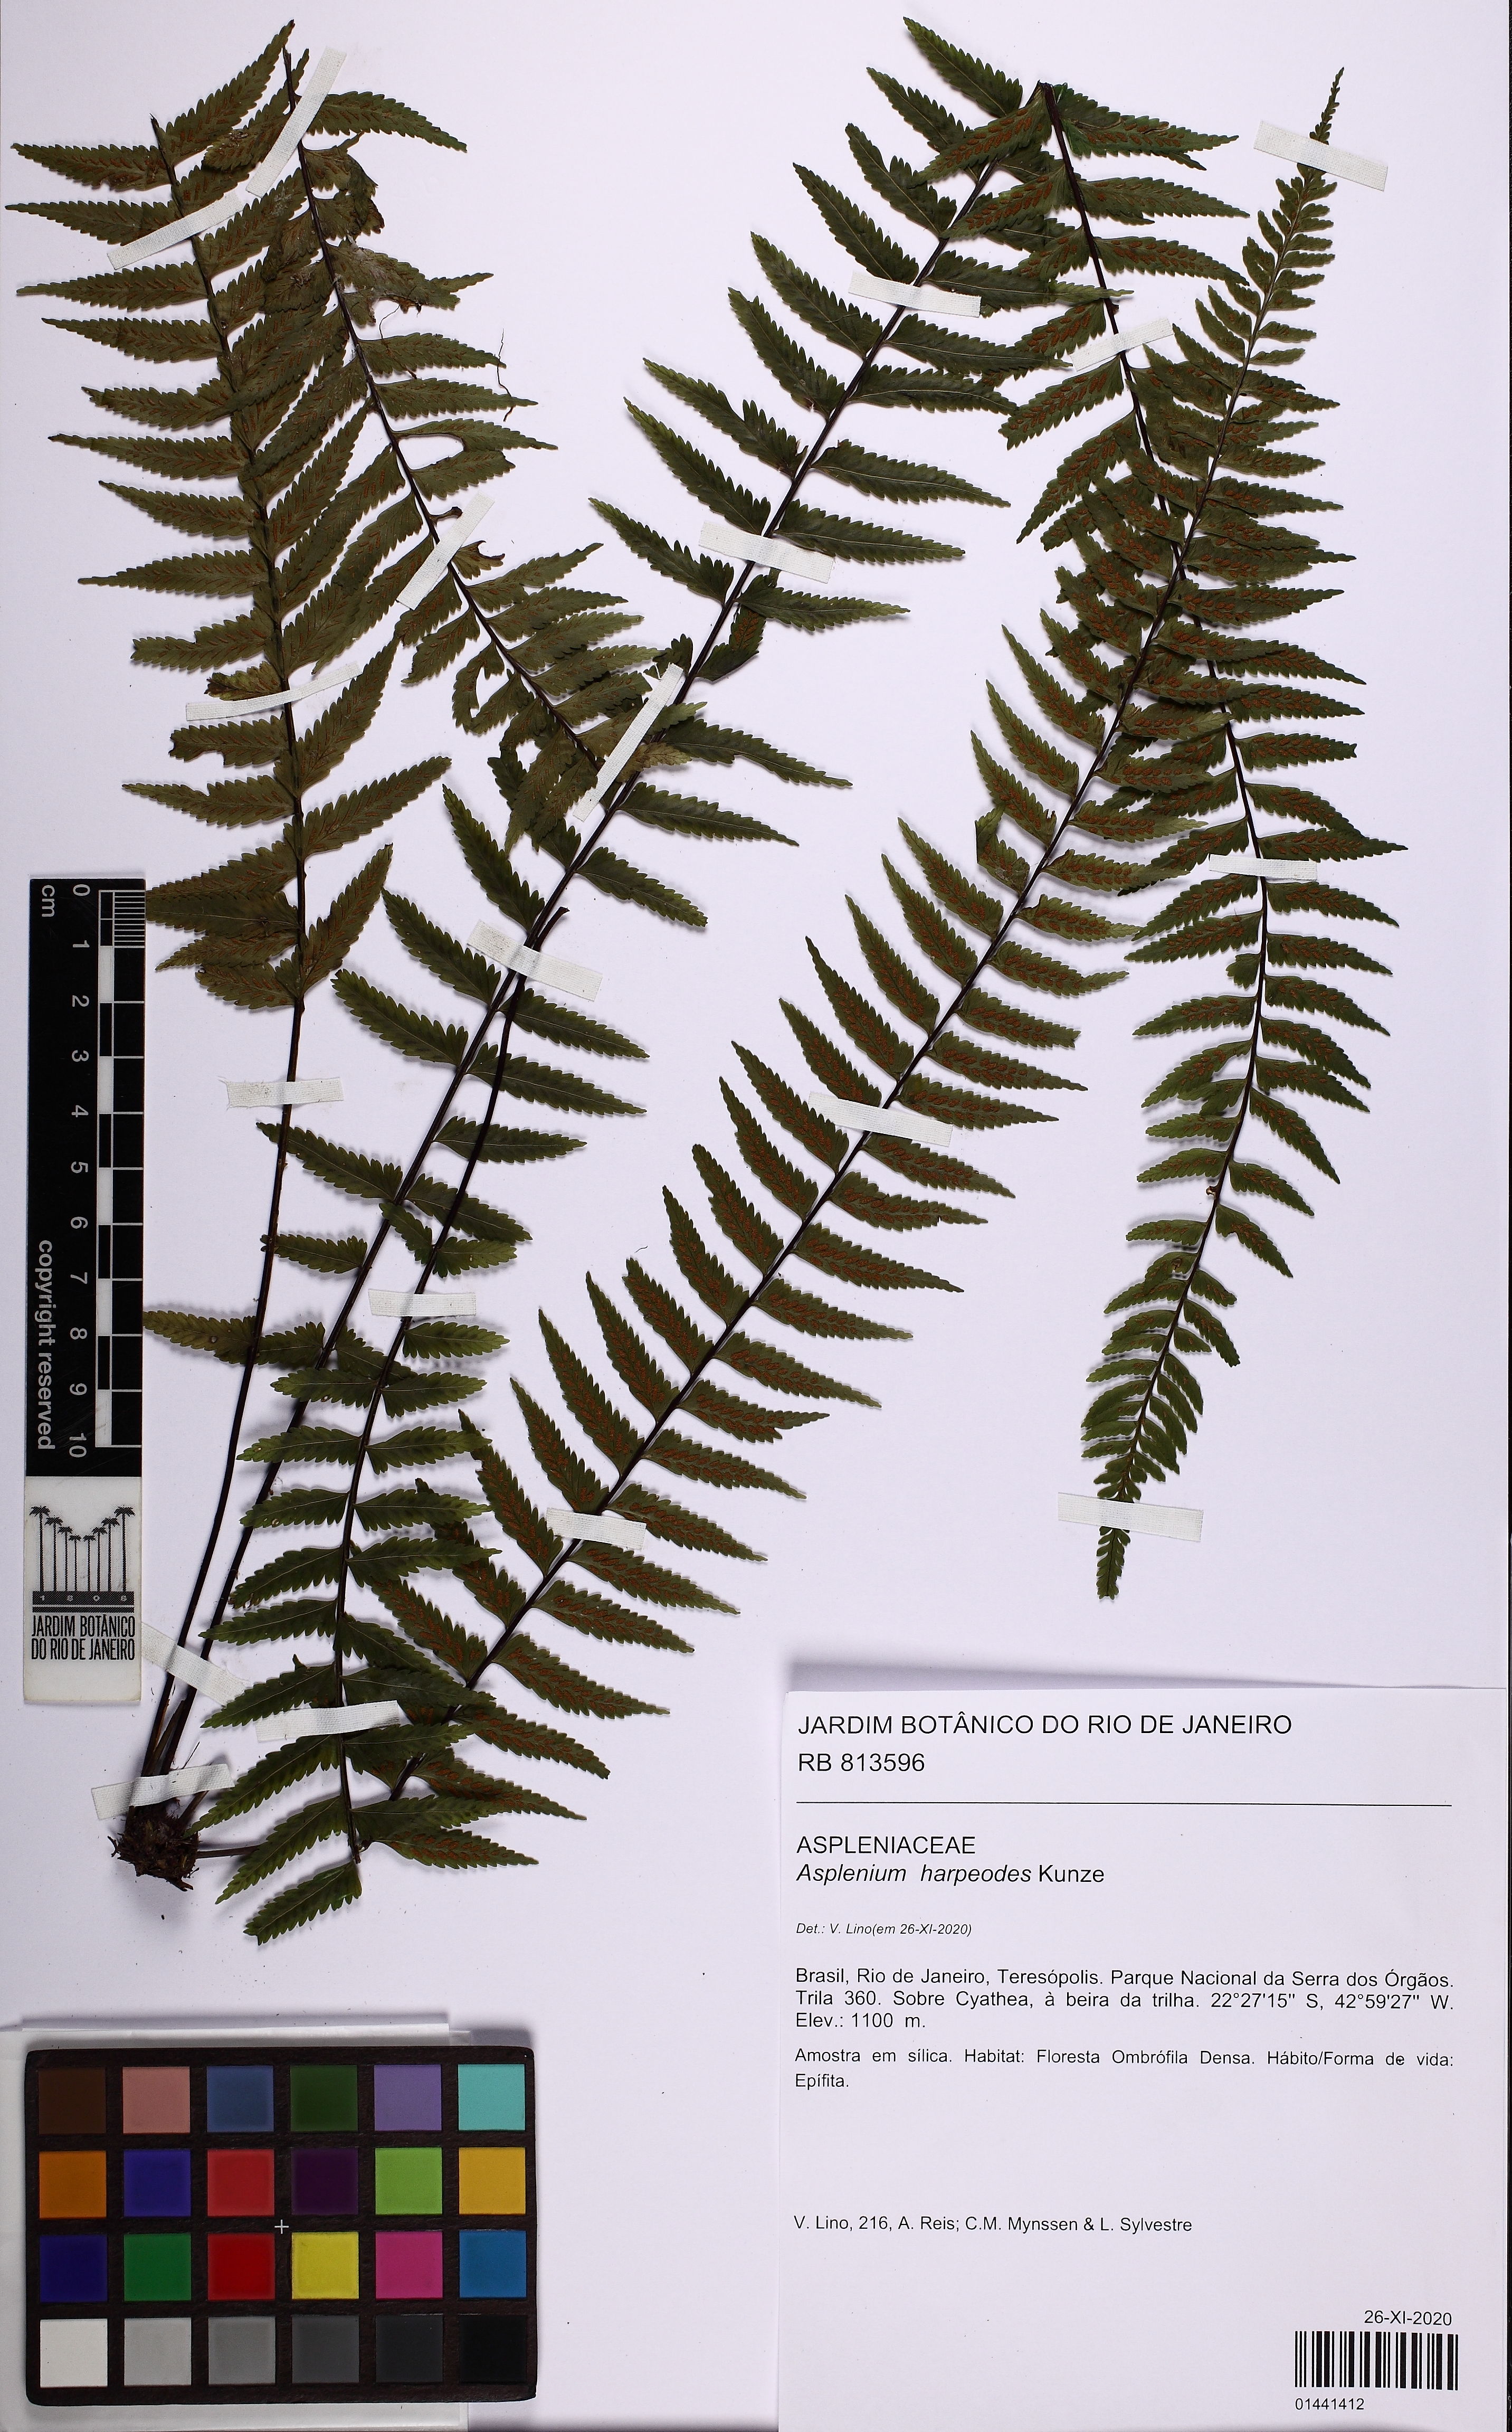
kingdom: Plantae
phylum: Tracheophyta
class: Polypodiopsida
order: Polypodiales
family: Aspleniaceae
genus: Asplenium
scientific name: Asplenium harpeodes
